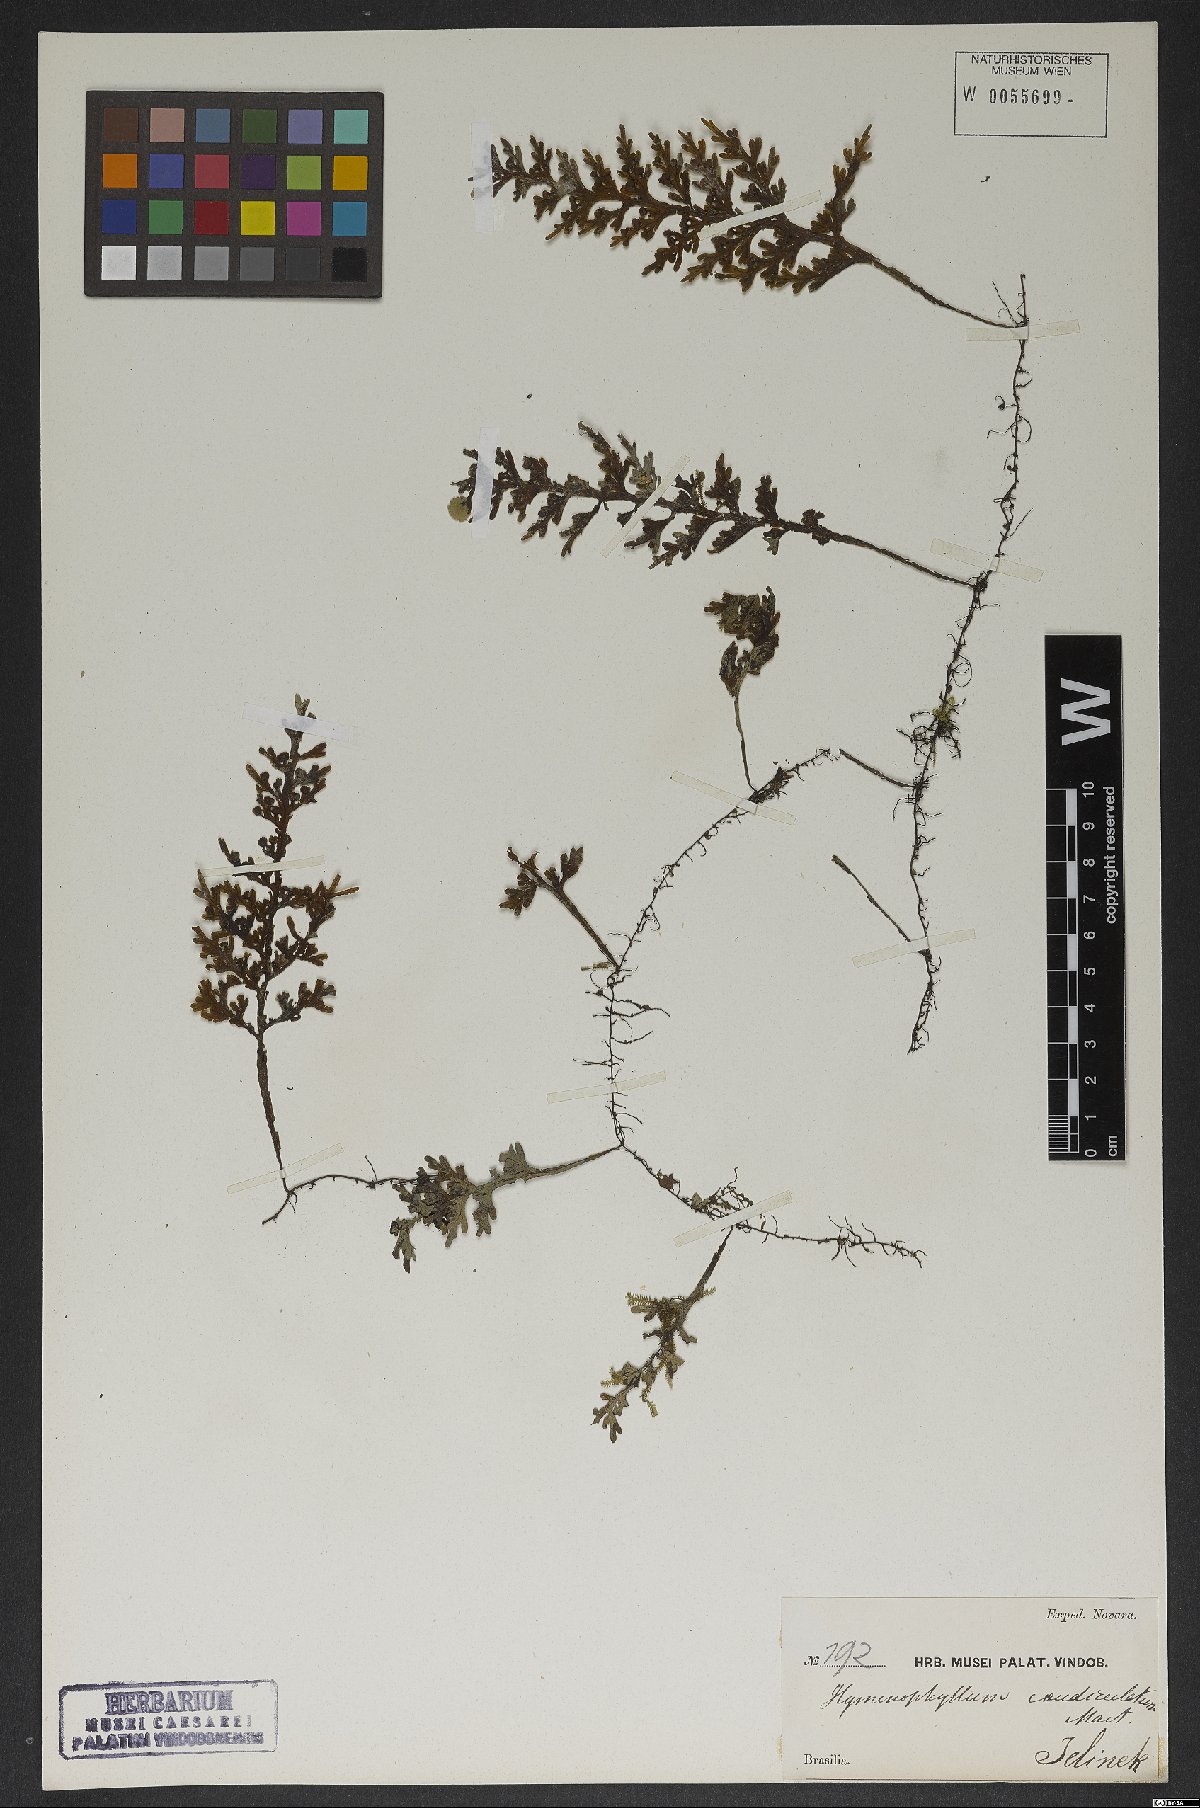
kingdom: Plantae
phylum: Tracheophyta
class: Polypodiopsida
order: Hymenophyllales
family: Hymenophyllaceae
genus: Hymenophyllum
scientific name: Hymenophyllum asplenioides
